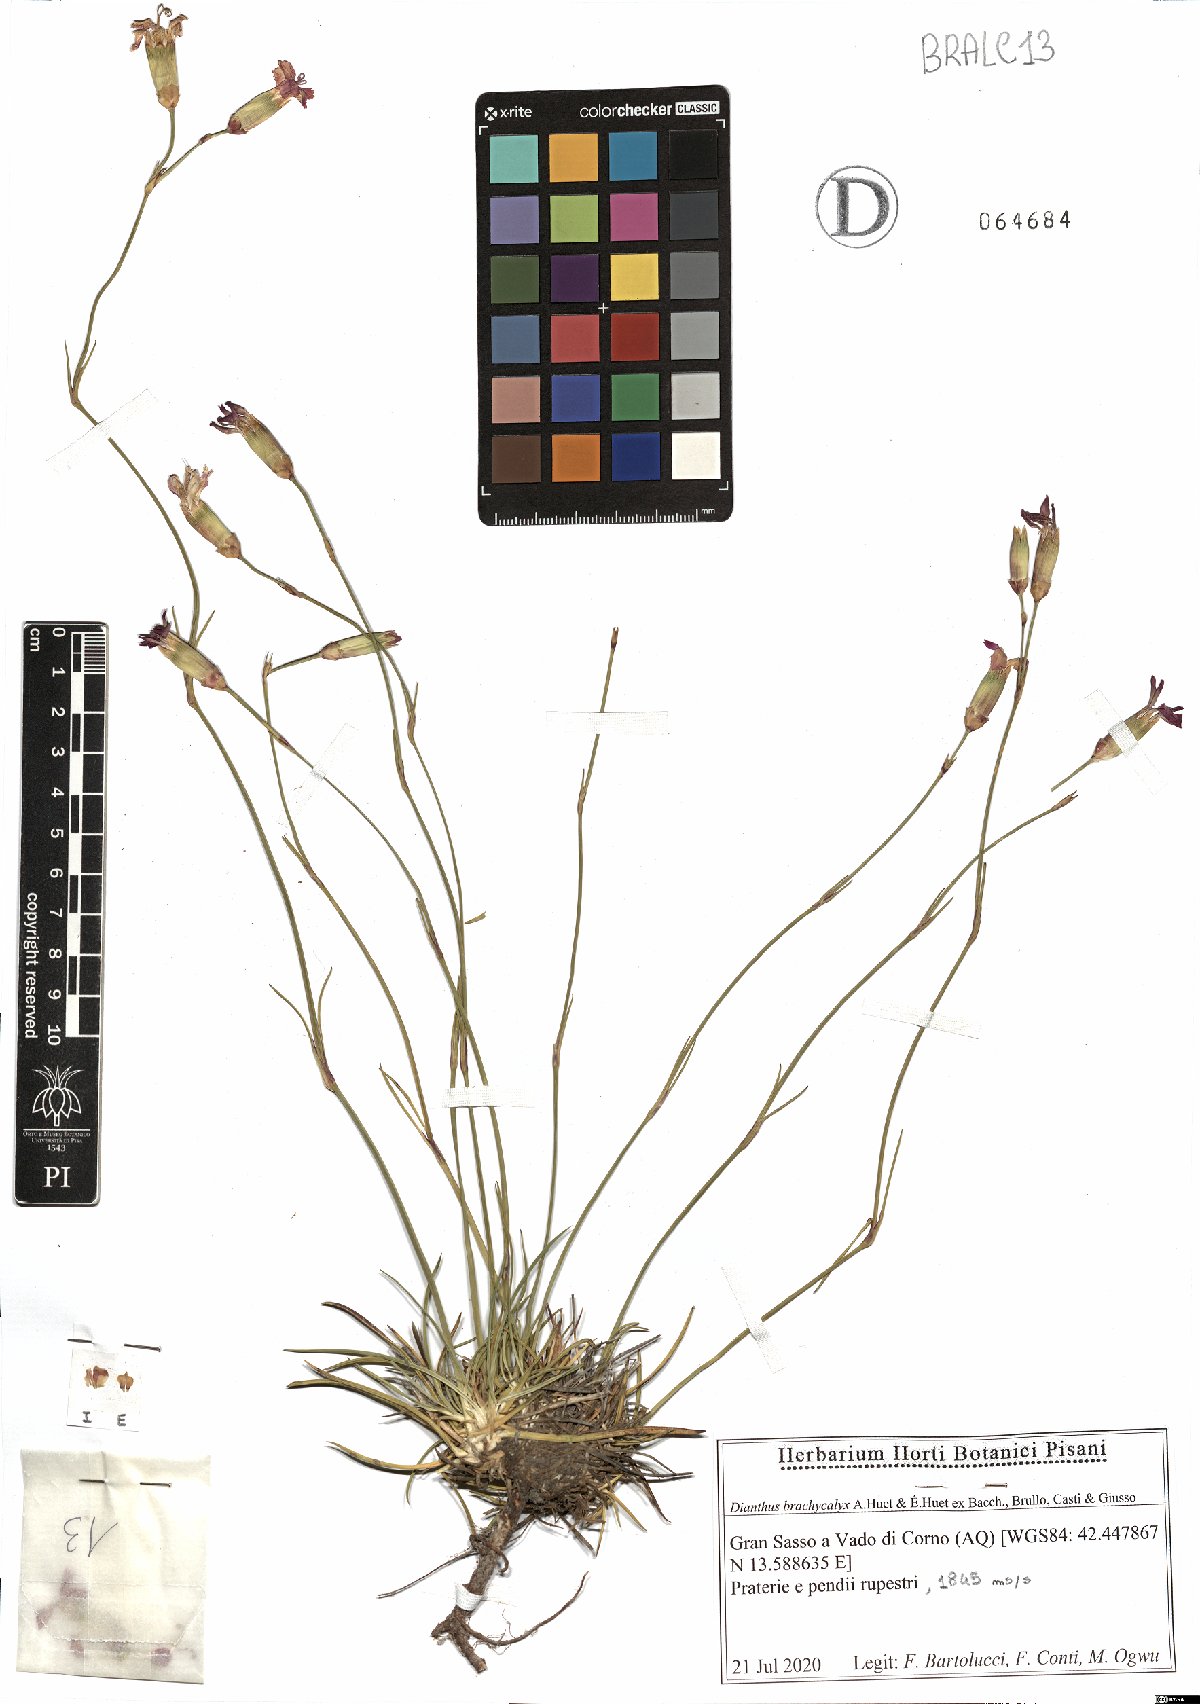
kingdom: Plantae
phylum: Tracheophyta
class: Magnoliopsida
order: Caryophyllales
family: Caryophyllaceae
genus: Dianthus
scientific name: Dianthus brachycalyx
